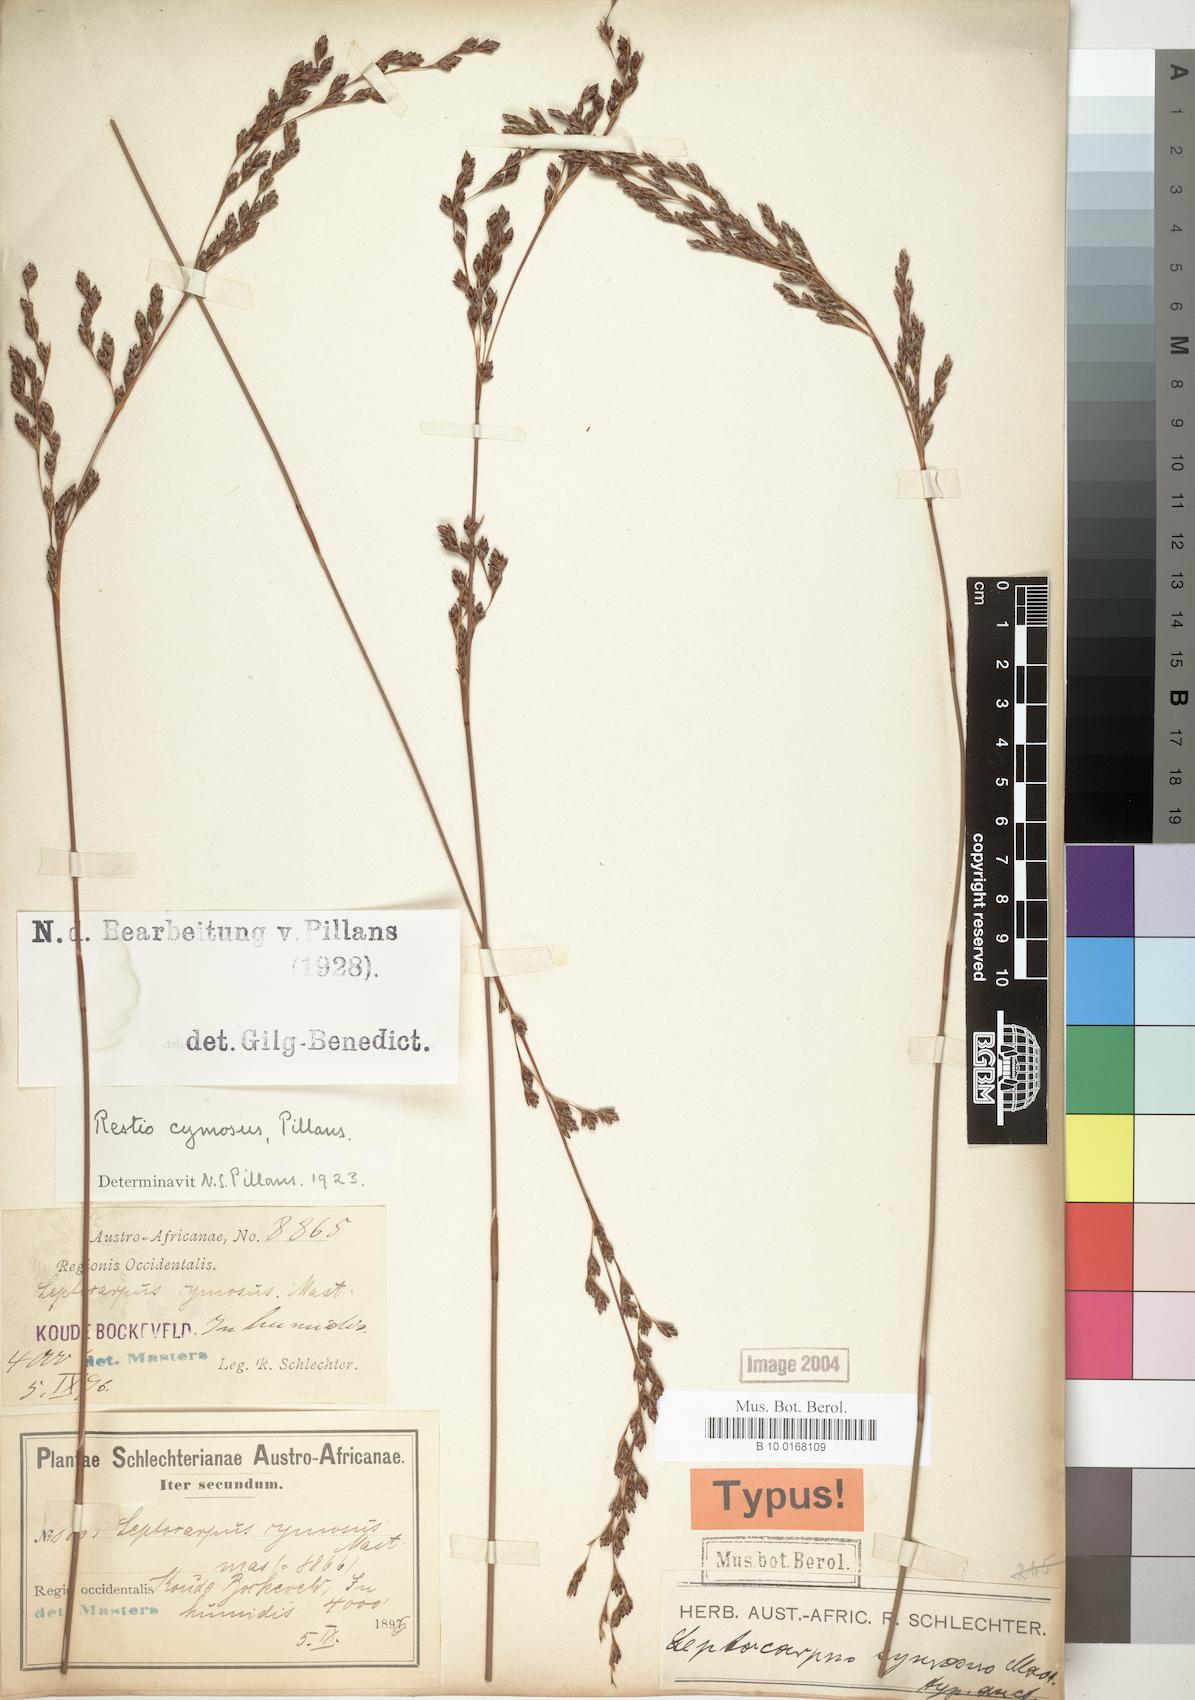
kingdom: Plantae
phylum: Tracheophyta
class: Liliopsida
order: Poales
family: Restionaceae
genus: Restio
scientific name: Restio cymosus
